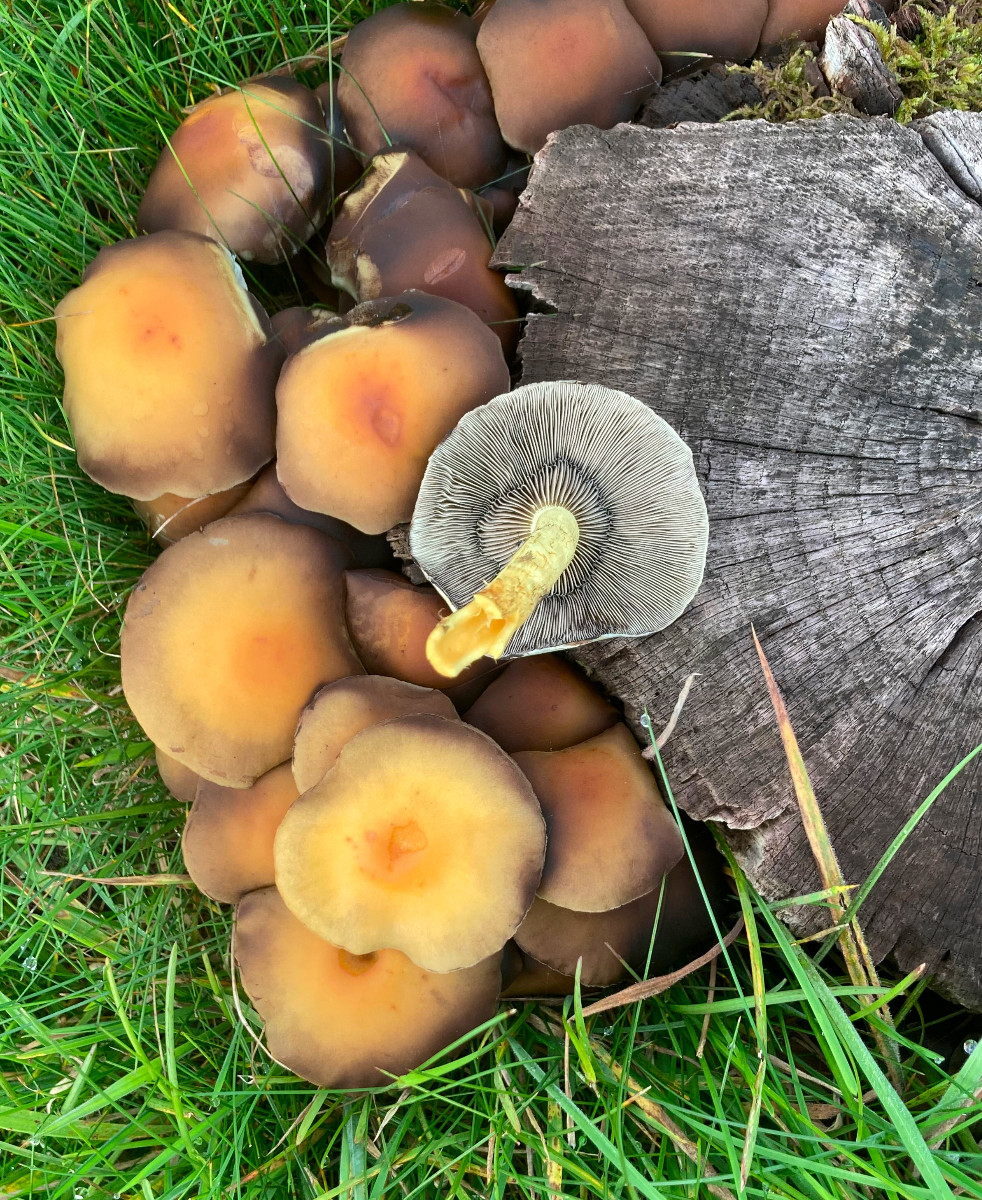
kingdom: Fungi
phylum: Basidiomycota
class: Agaricomycetes
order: Agaricales
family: Strophariaceae
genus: Hypholoma
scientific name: Hypholoma fasciculare
